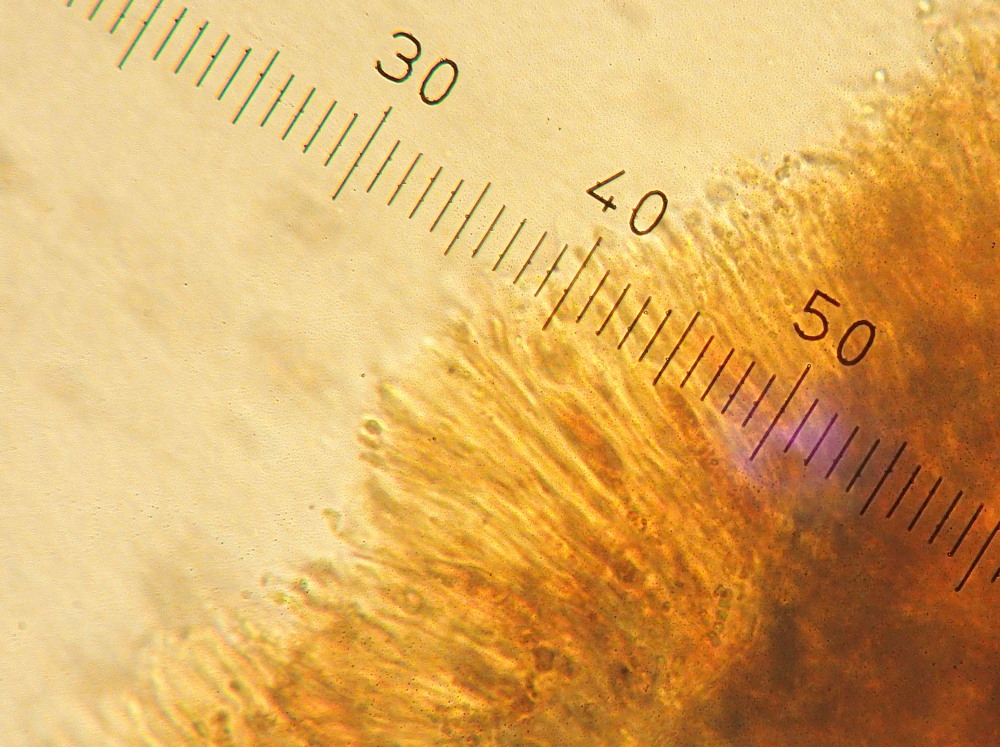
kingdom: Fungi
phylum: Ascomycota
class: Lecanoromycetes
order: Lecanorales
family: Lecanoraceae
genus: Polyozosia
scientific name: Polyozosia albescens
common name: cement-kantskivelav
